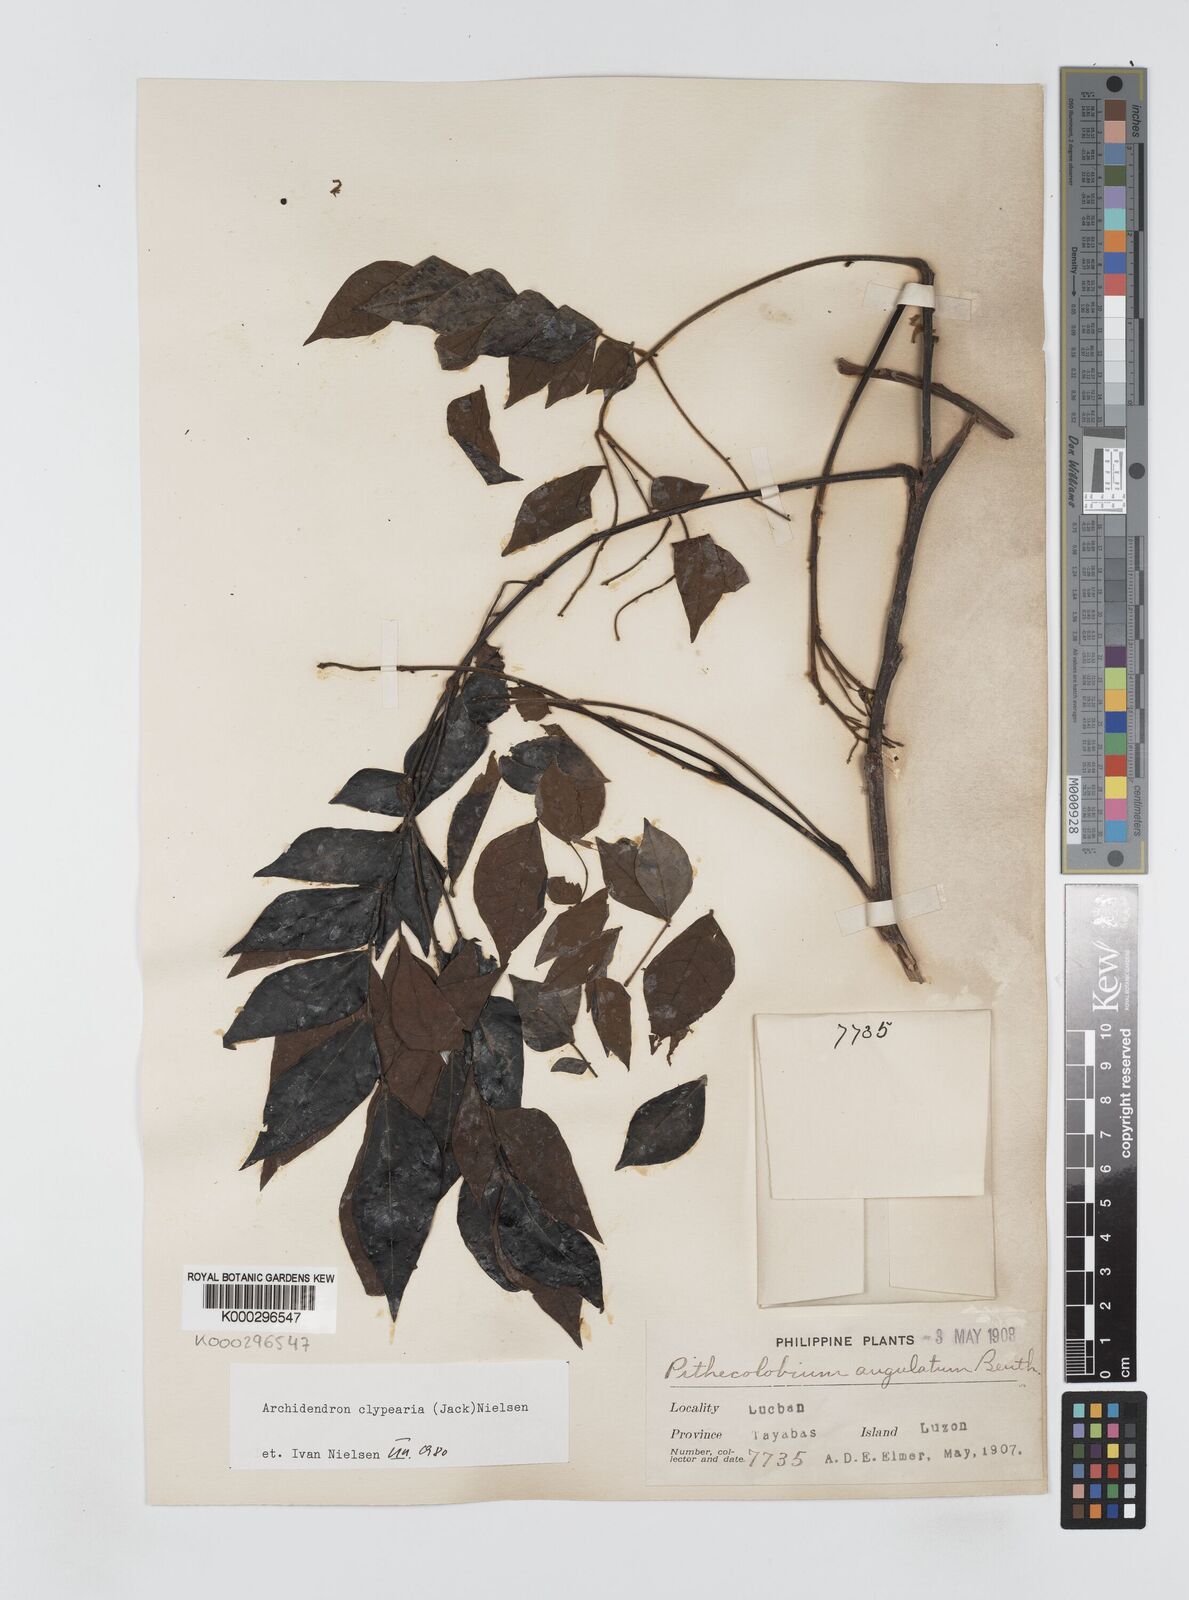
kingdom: Plantae
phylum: Tracheophyta
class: Magnoliopsida
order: Fabales
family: Fabaceae
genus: Archidendron
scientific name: Archidendron clypearia
